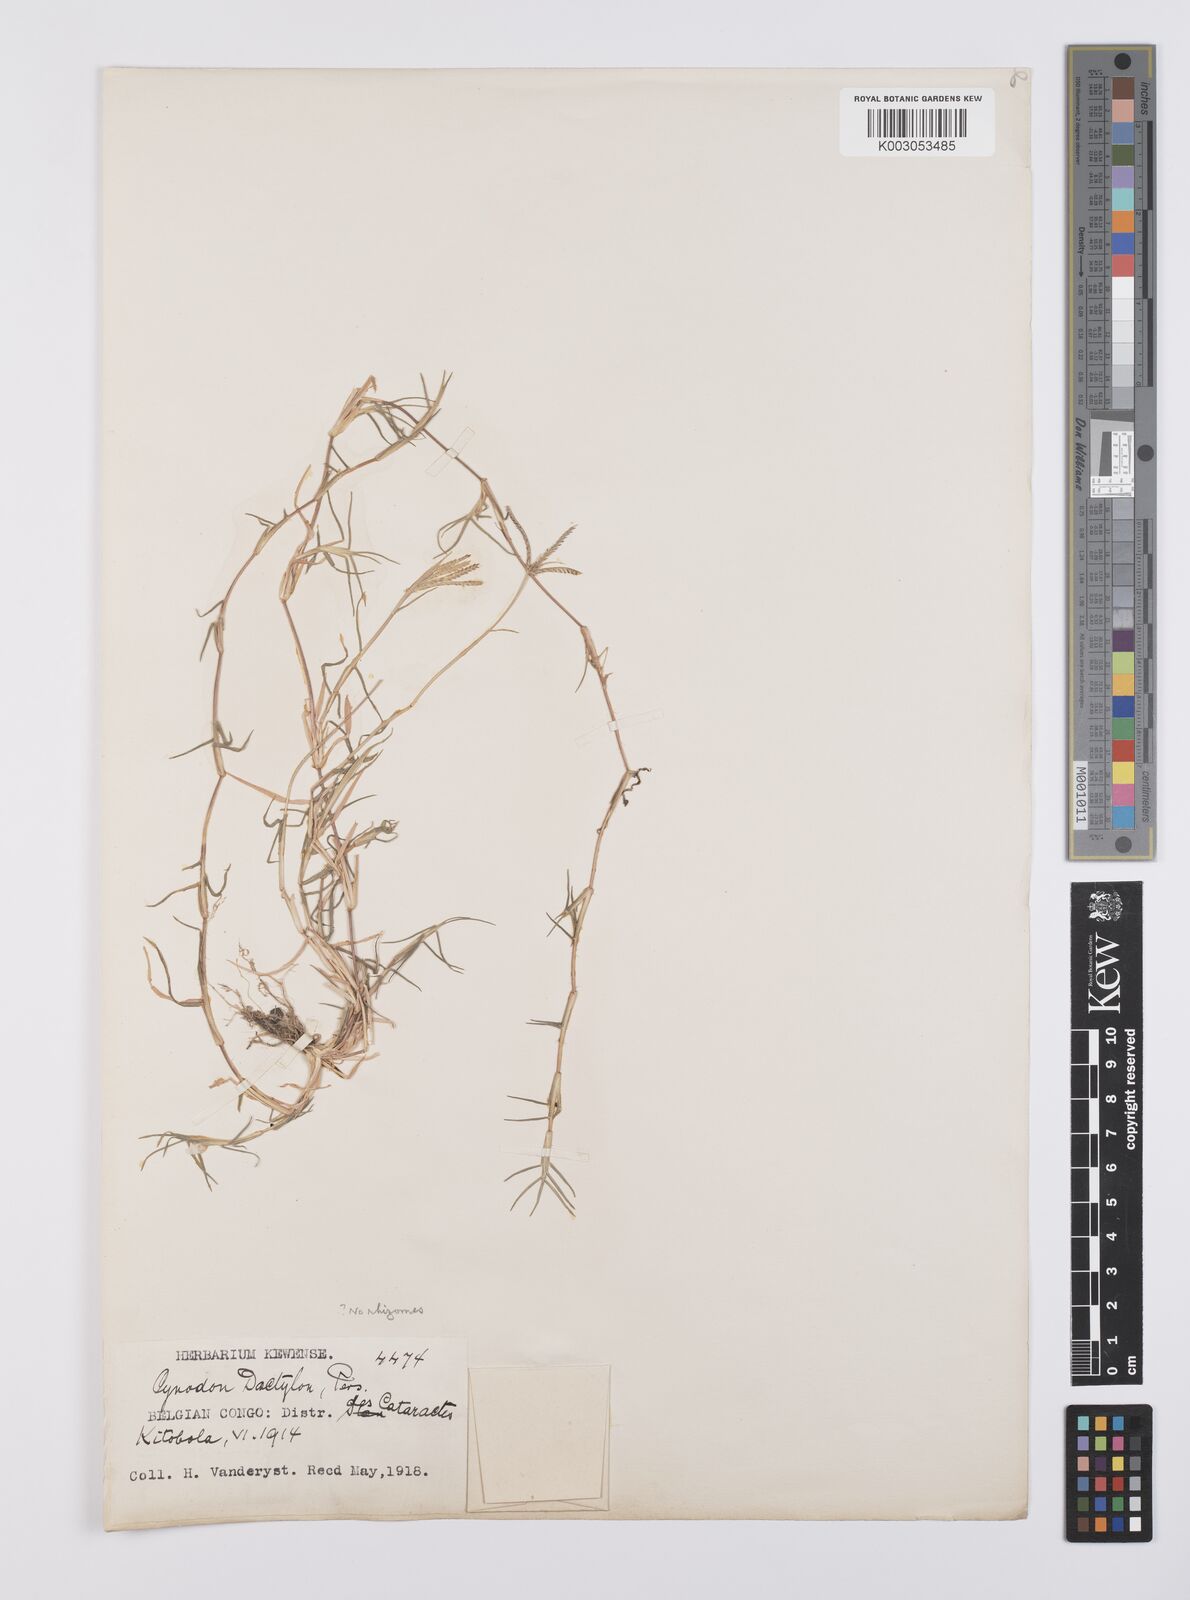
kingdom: Plantae
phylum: Tracheophyta
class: Liliopsida
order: Poales
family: Poaceae
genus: Cynodon
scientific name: Cynodon dactylon
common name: Bermuda grass
